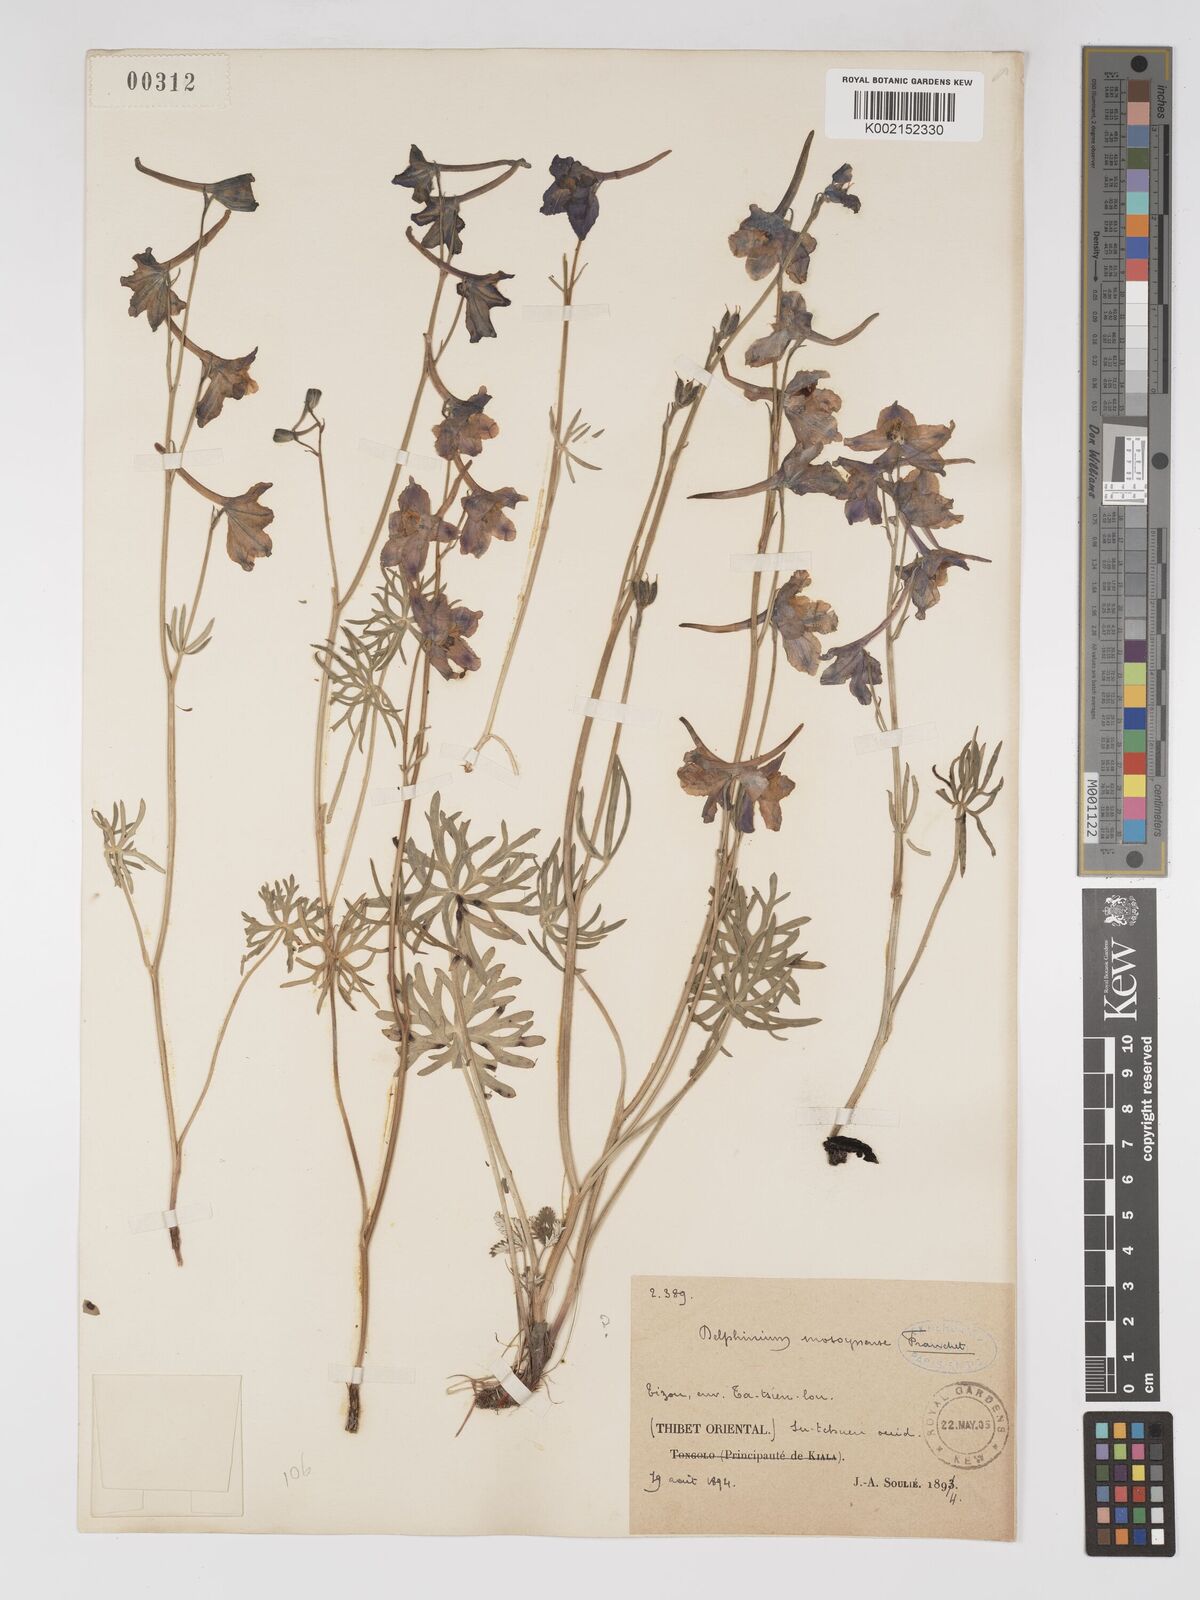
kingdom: Plantae
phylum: Tracheophyta
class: Magnoliopsida
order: Ranunculales
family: Ranunculaceae
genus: Delphinium
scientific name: Delphinium kamaonense
